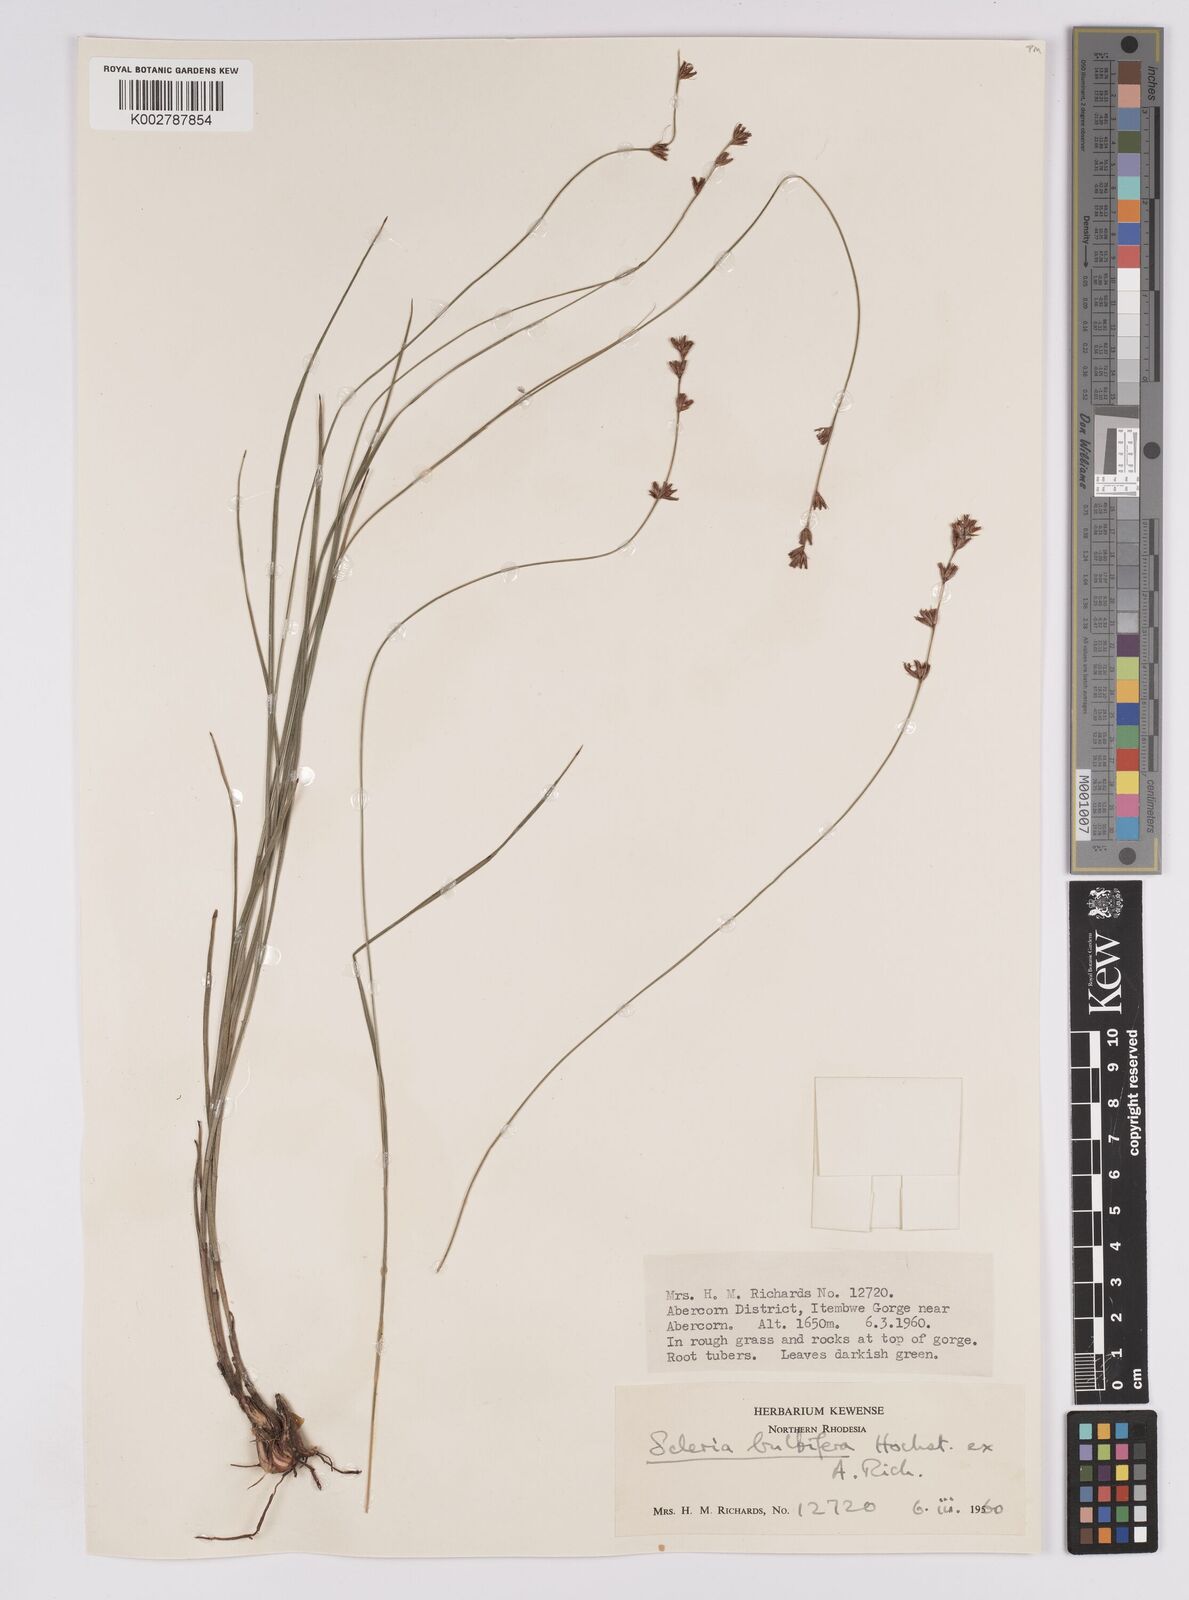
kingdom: Plantae
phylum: Tracheophyta
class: Liliopsida
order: Poales
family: Cyperaceae
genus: Scleria
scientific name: Scleria bulbifera
